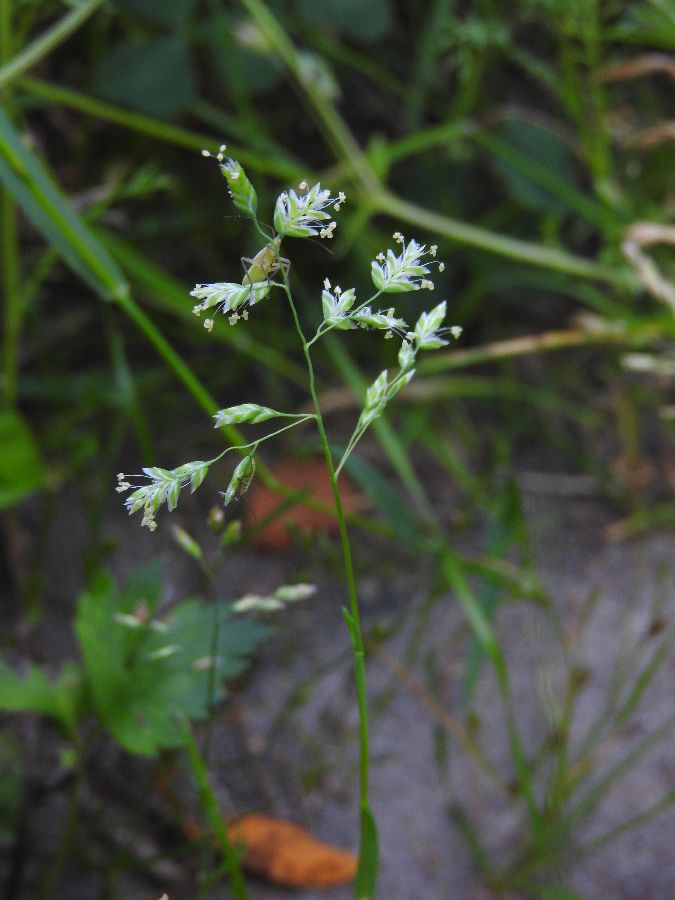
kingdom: Plantae
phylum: Tracheophyta
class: Liliopsida
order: Poales
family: Poaceae
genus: Poa
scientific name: Poa annua
